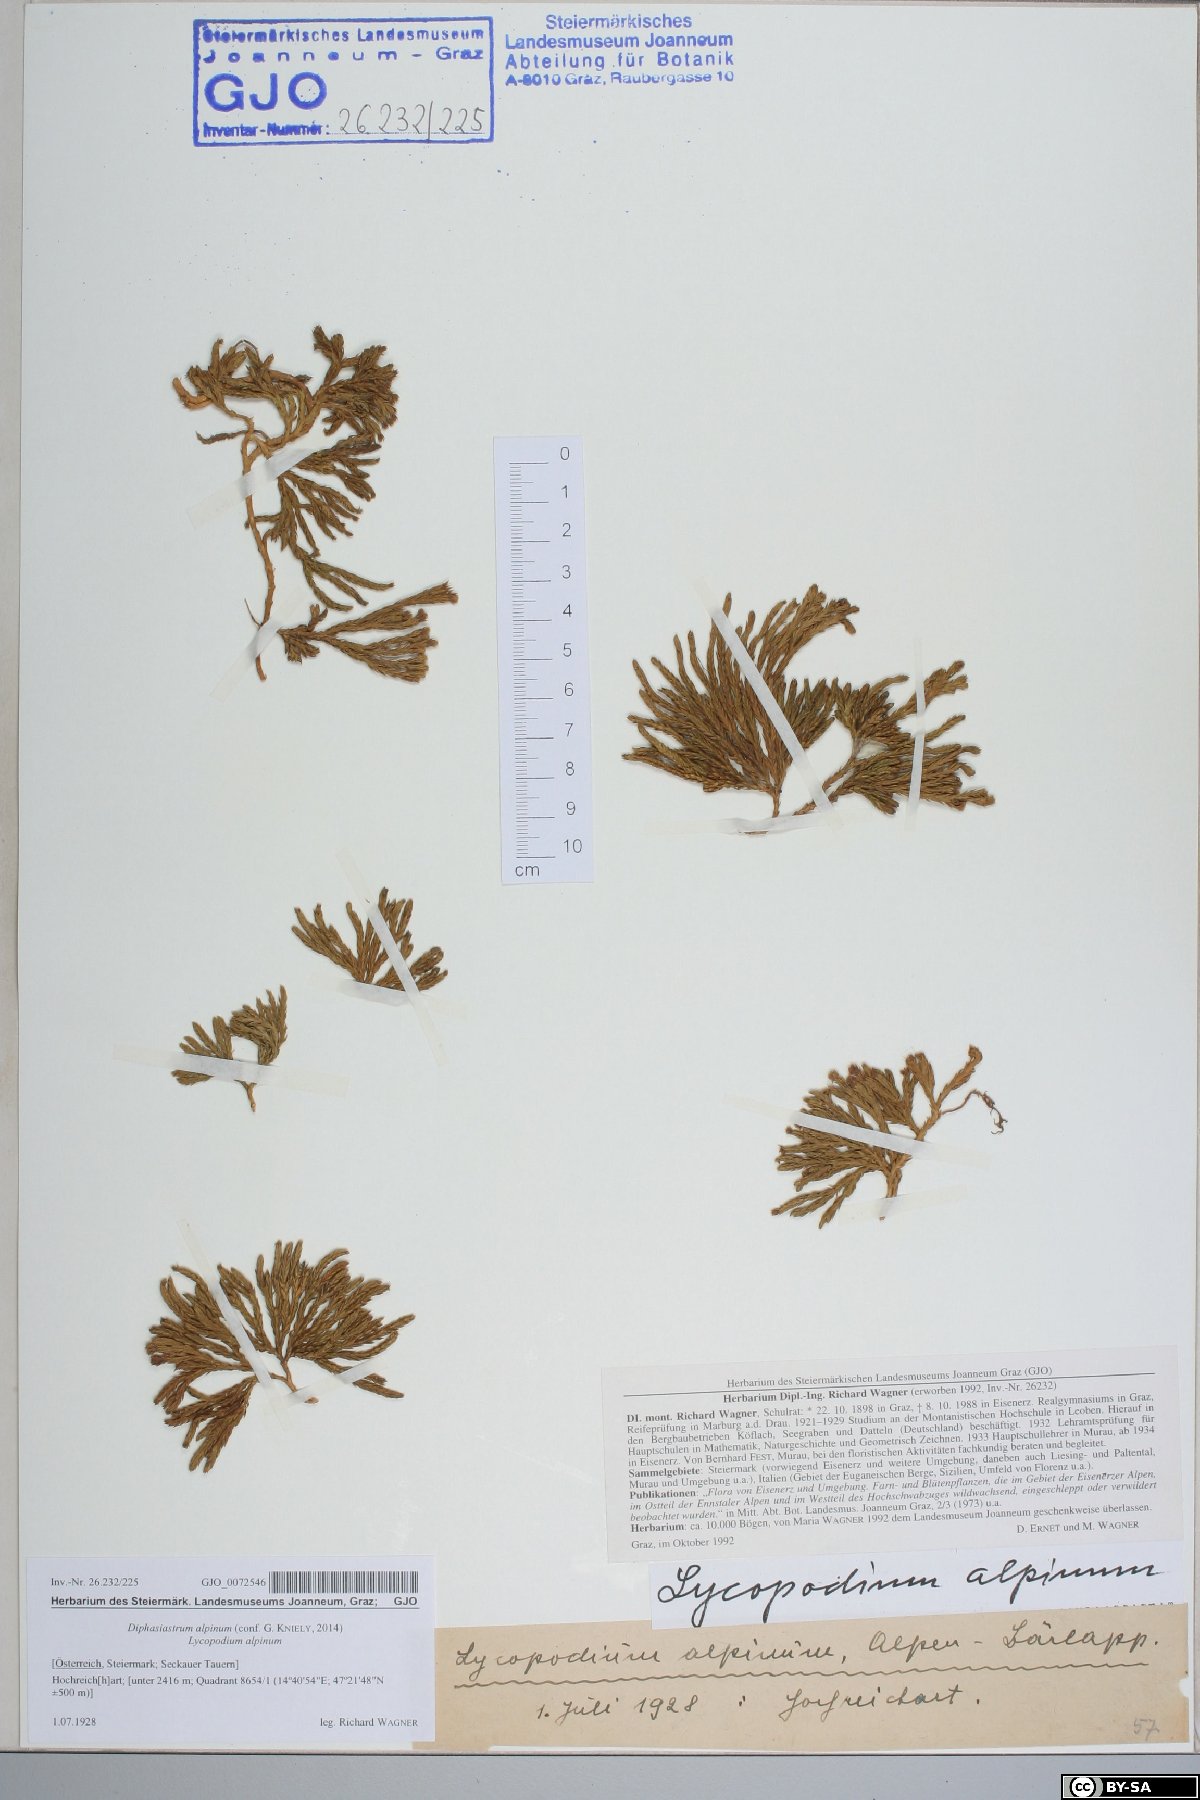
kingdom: Plantae
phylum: Tracheophyta
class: Lycopodiopsida
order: Lycopodiales
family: Lycopodiaceae
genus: Diphasiastrum
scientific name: Diphasiastrum alpinum
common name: Alpine clubmoss
